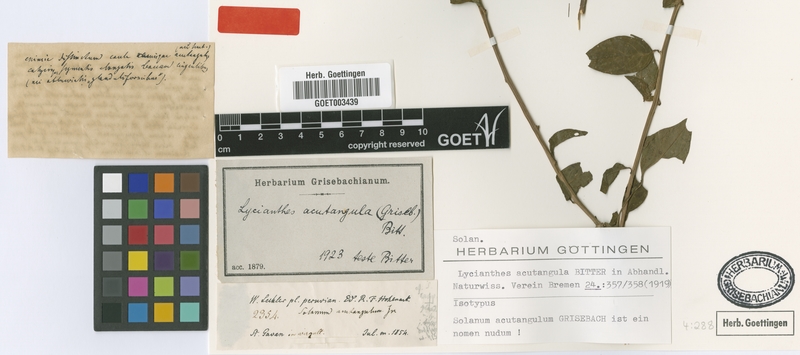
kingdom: Plantae
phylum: Tracheophyta
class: Magnoliopsida
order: Solanales
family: Solanaceae
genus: Lycianthes
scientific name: Lycianthes stenoloba
